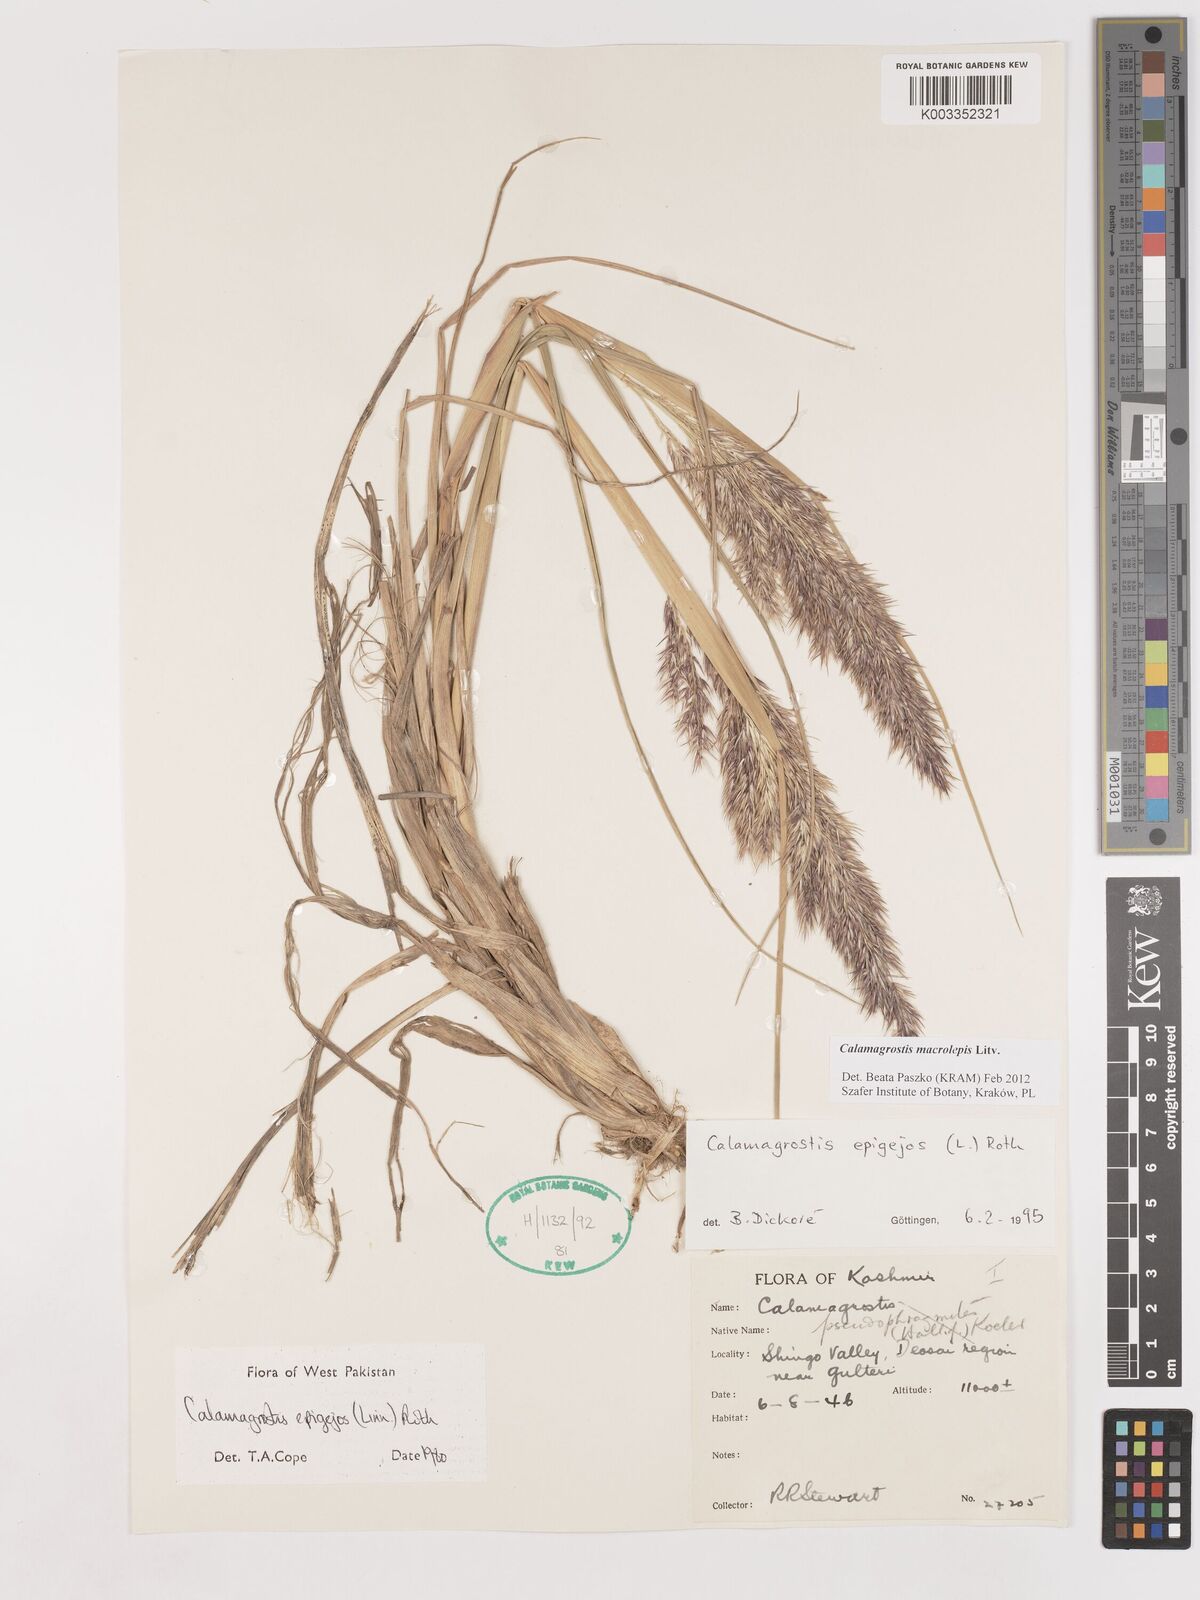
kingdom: Plantae
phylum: Tracheophyta
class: Liliopsida
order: Poales
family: Poaceae
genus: Calamagrostis
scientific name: Calamagrostis epigejos
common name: Wood small-reed
